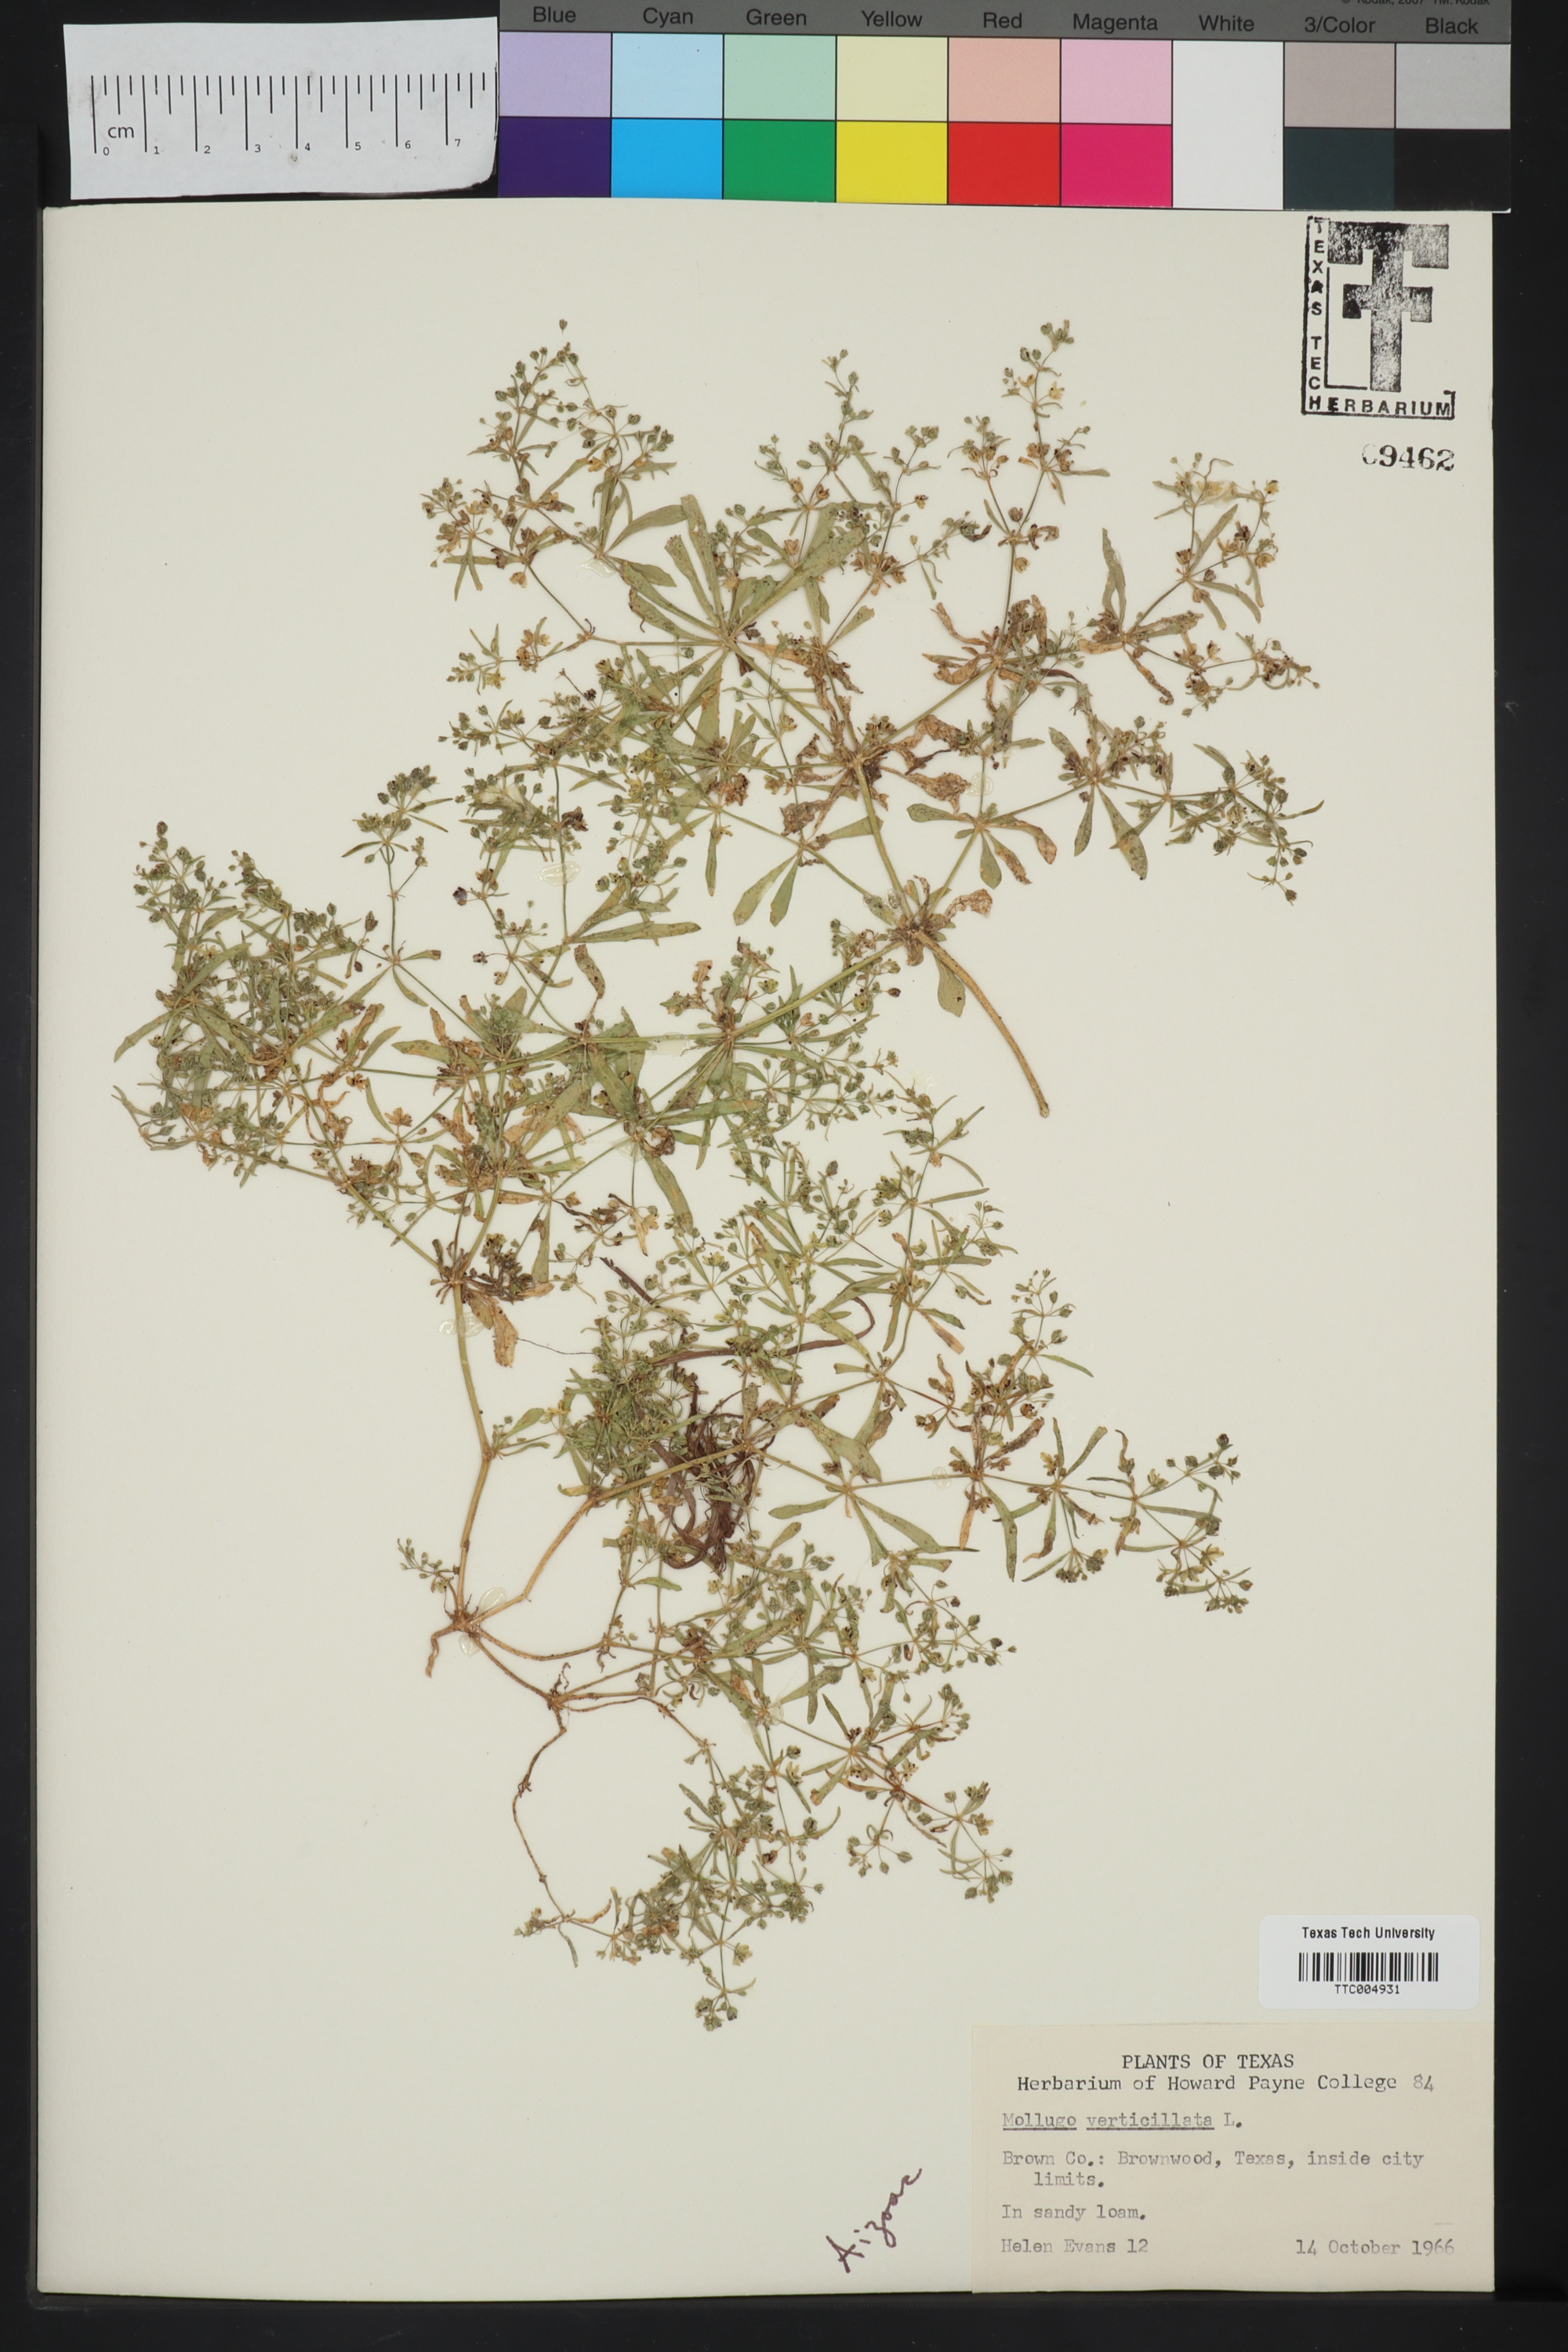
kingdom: Plantae
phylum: Tracheophyta
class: Magnoliopsida
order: Caryophyllales
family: Molluginaceae
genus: Mollugo
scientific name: Mollugo verticillata
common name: Green carpetweed
